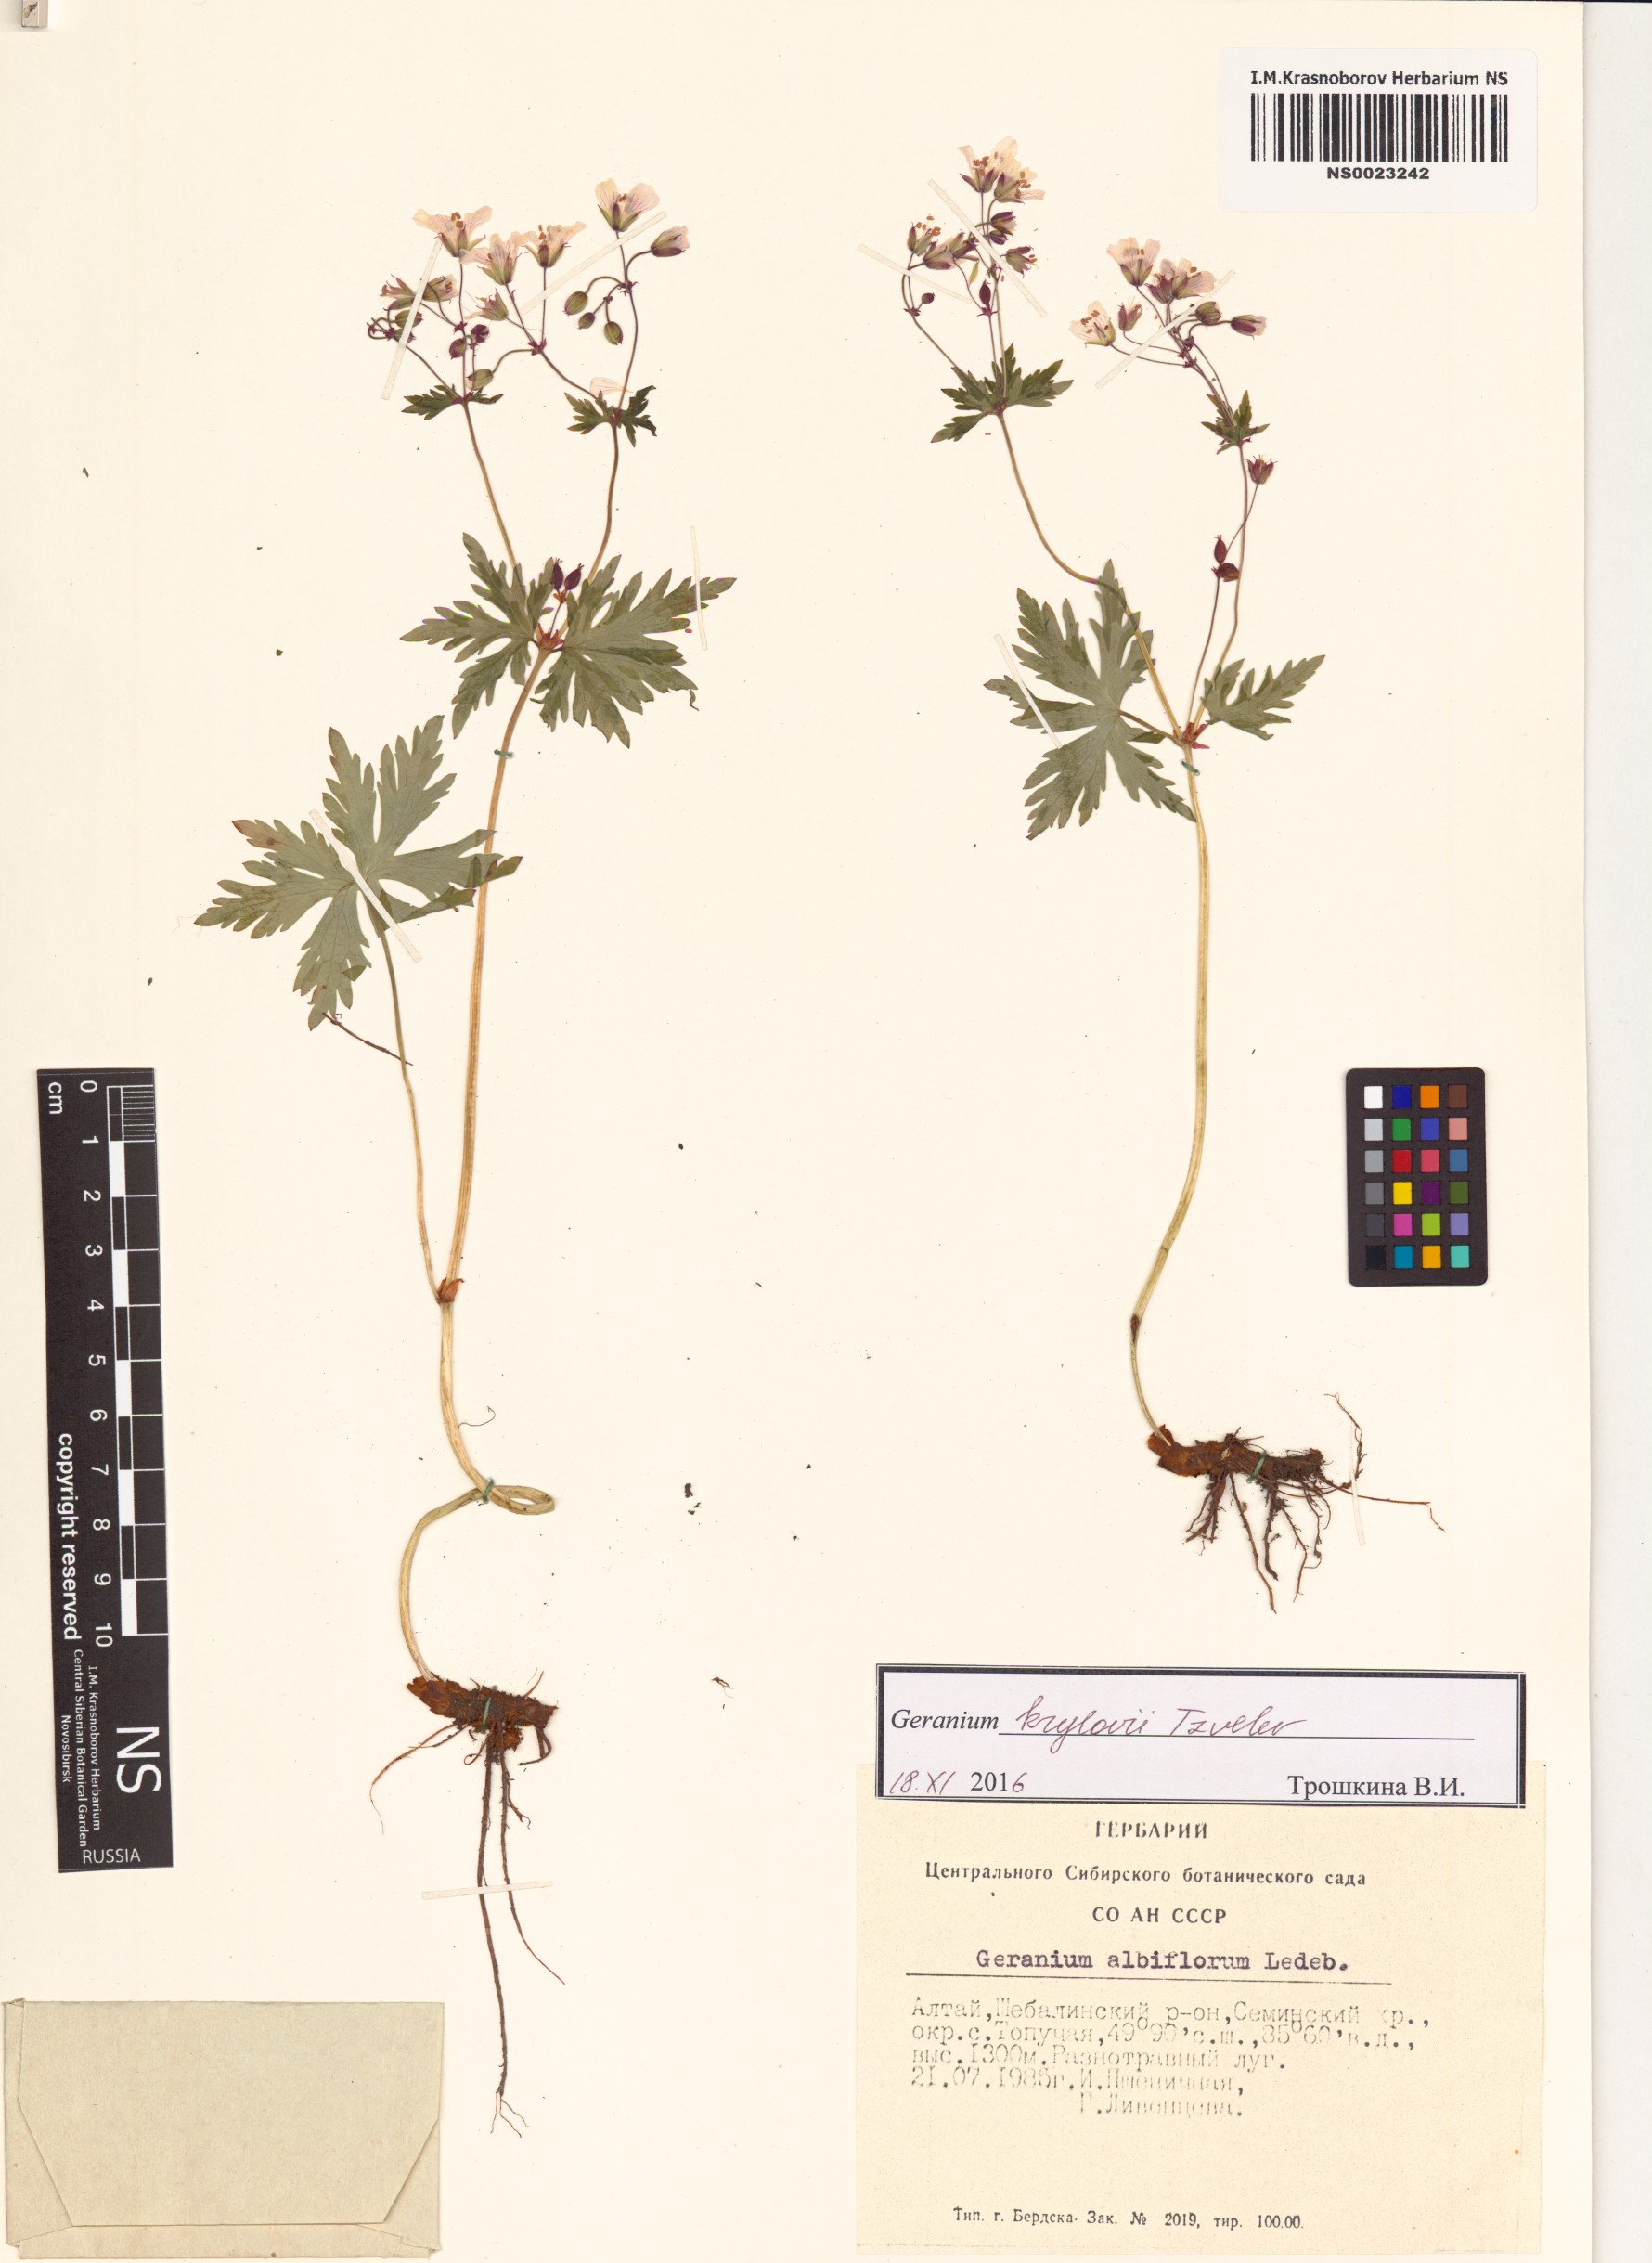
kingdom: Plantae
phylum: Tracheophyta
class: Magnoliopsida
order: Geraniales
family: Geraniaceae
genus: Geranium
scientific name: Geranium sylvaticum
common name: Wood crane's-bill
